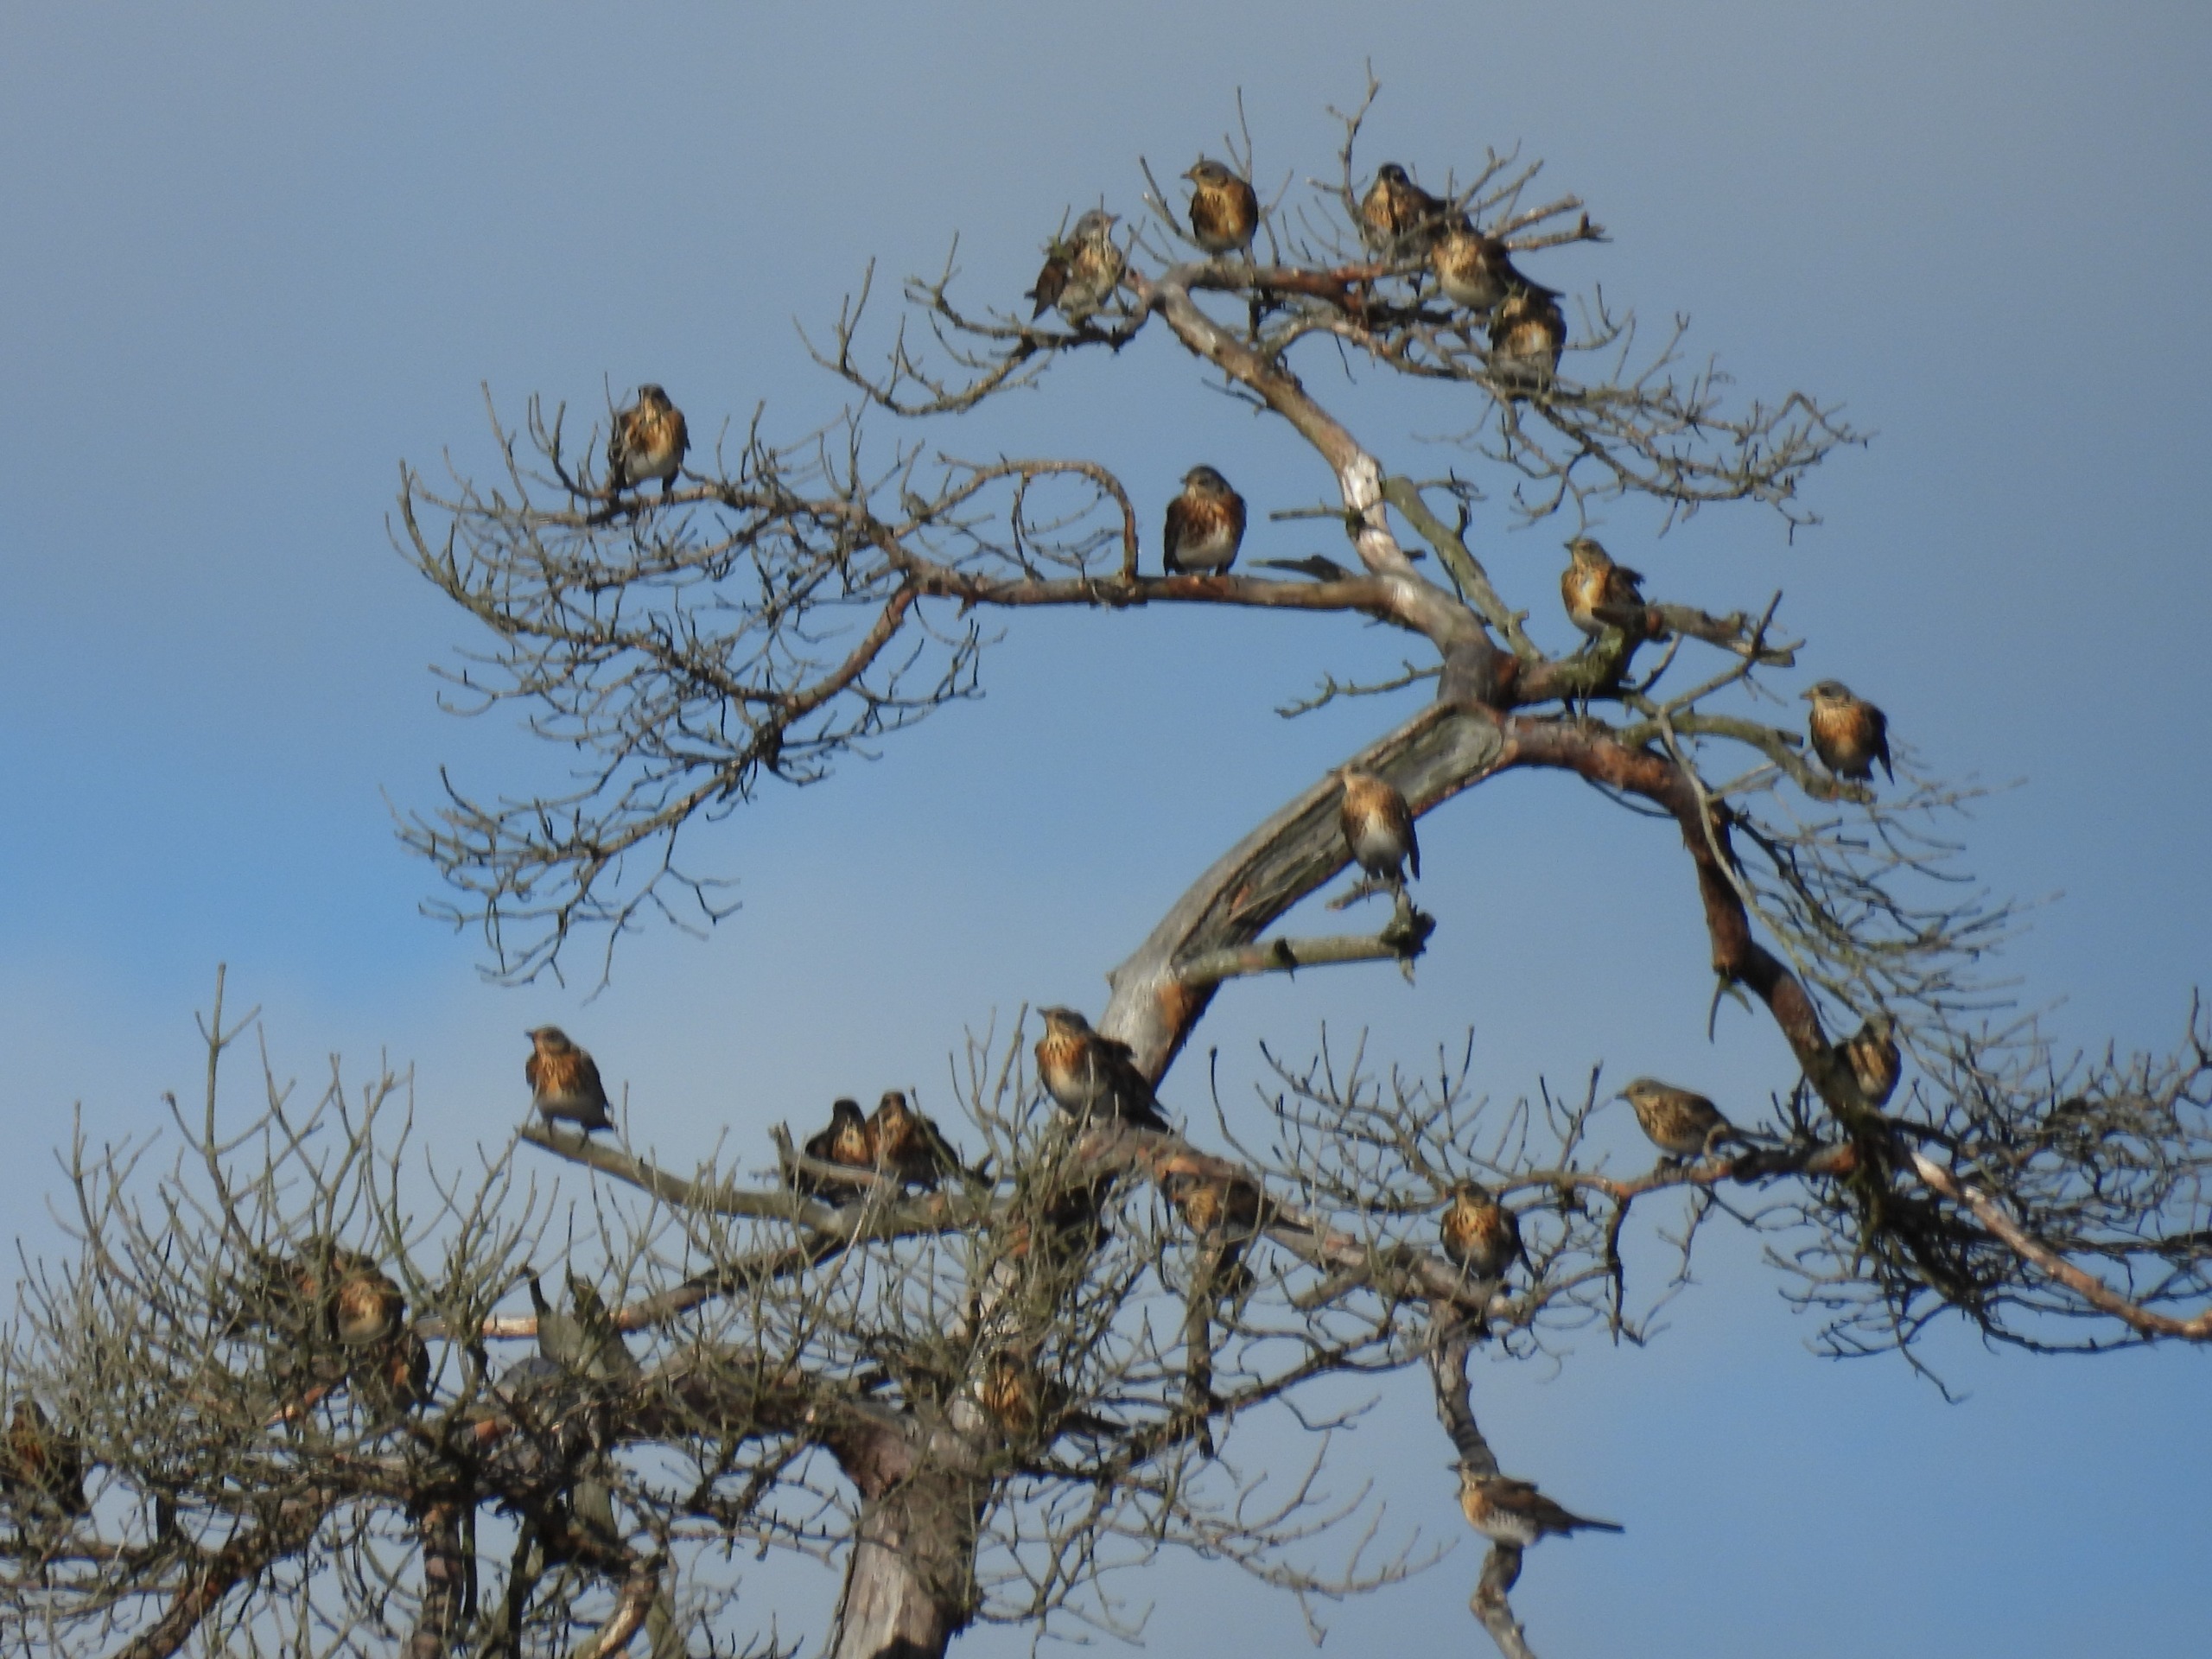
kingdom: Animalia
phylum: Chordata
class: Aves
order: Passeriformes
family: Turdidae
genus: Turdus
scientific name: Turdus pilaris
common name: Sjagger
